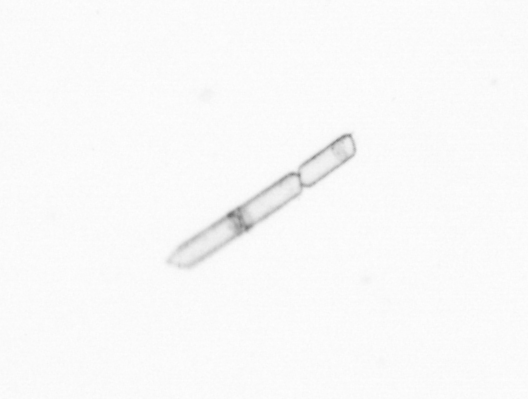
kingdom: Chromista
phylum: Ochrophyta
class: Bacillariophyceae
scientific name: Bacillariophyceae
